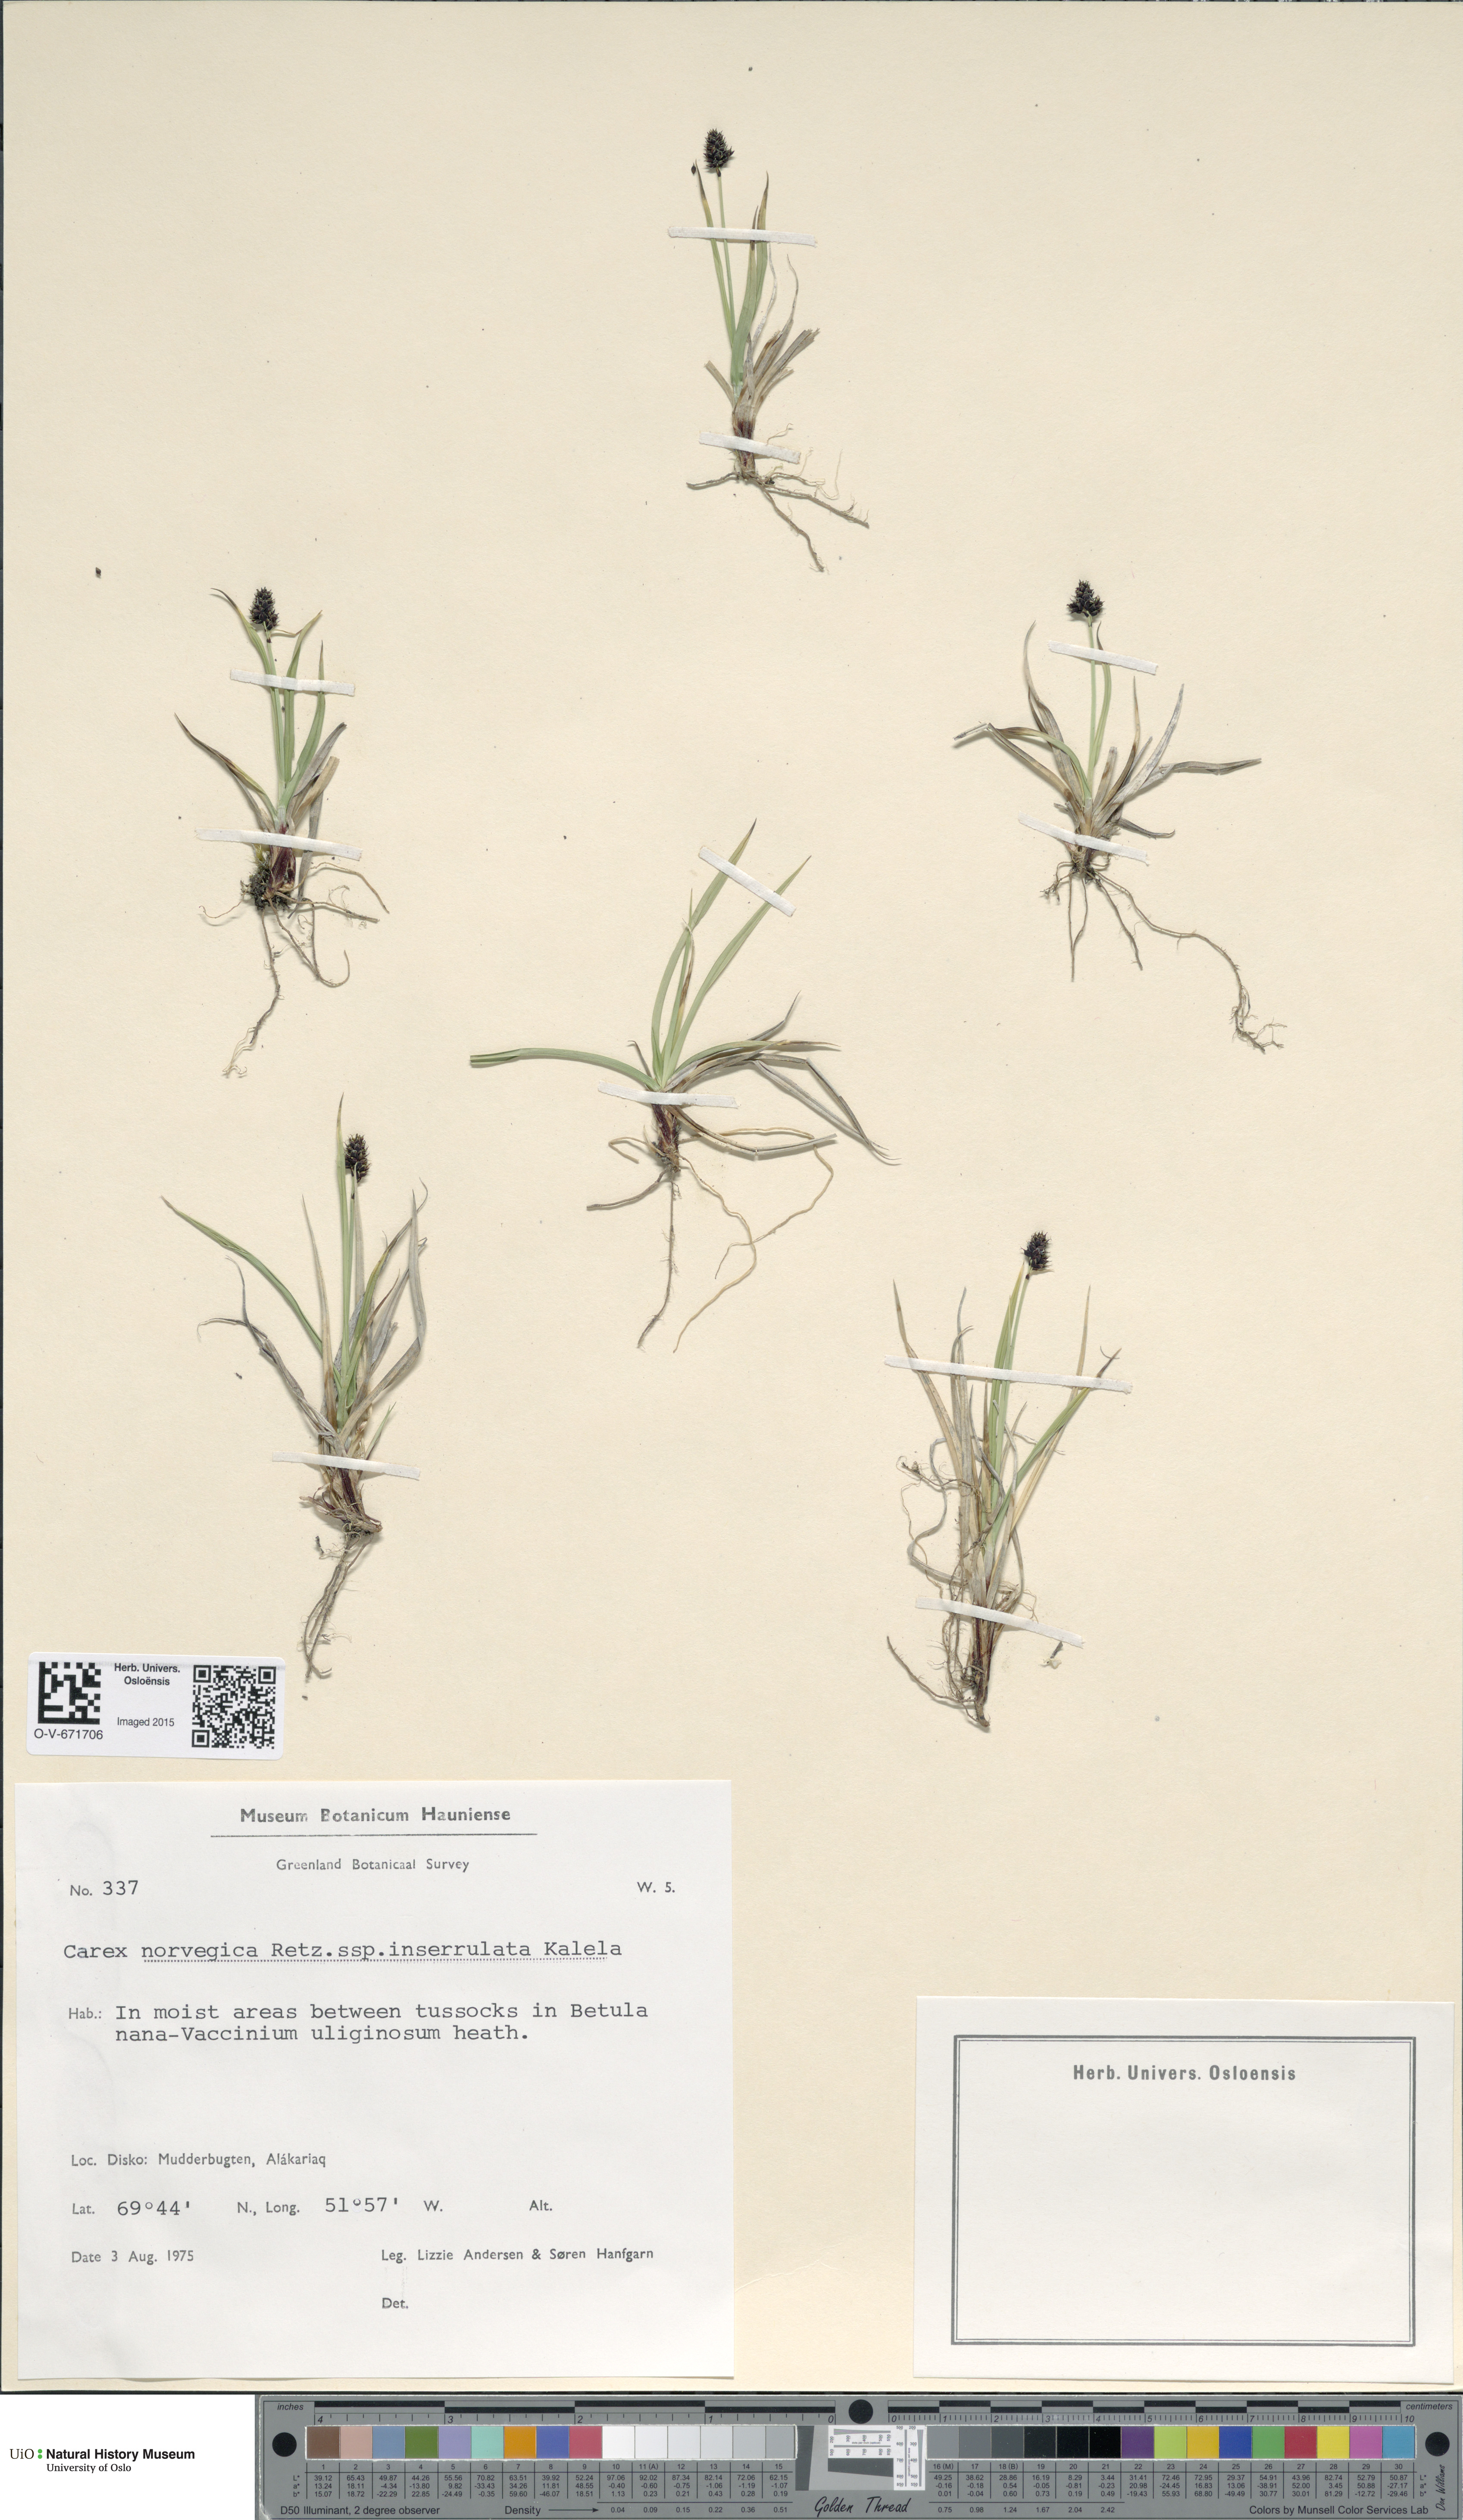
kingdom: Plantae
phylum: Tracheophyta
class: Liliopsida
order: Poales
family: Cyperaceae
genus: Carex
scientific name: Carex norvegica
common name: Close-headed alpine-sedge
